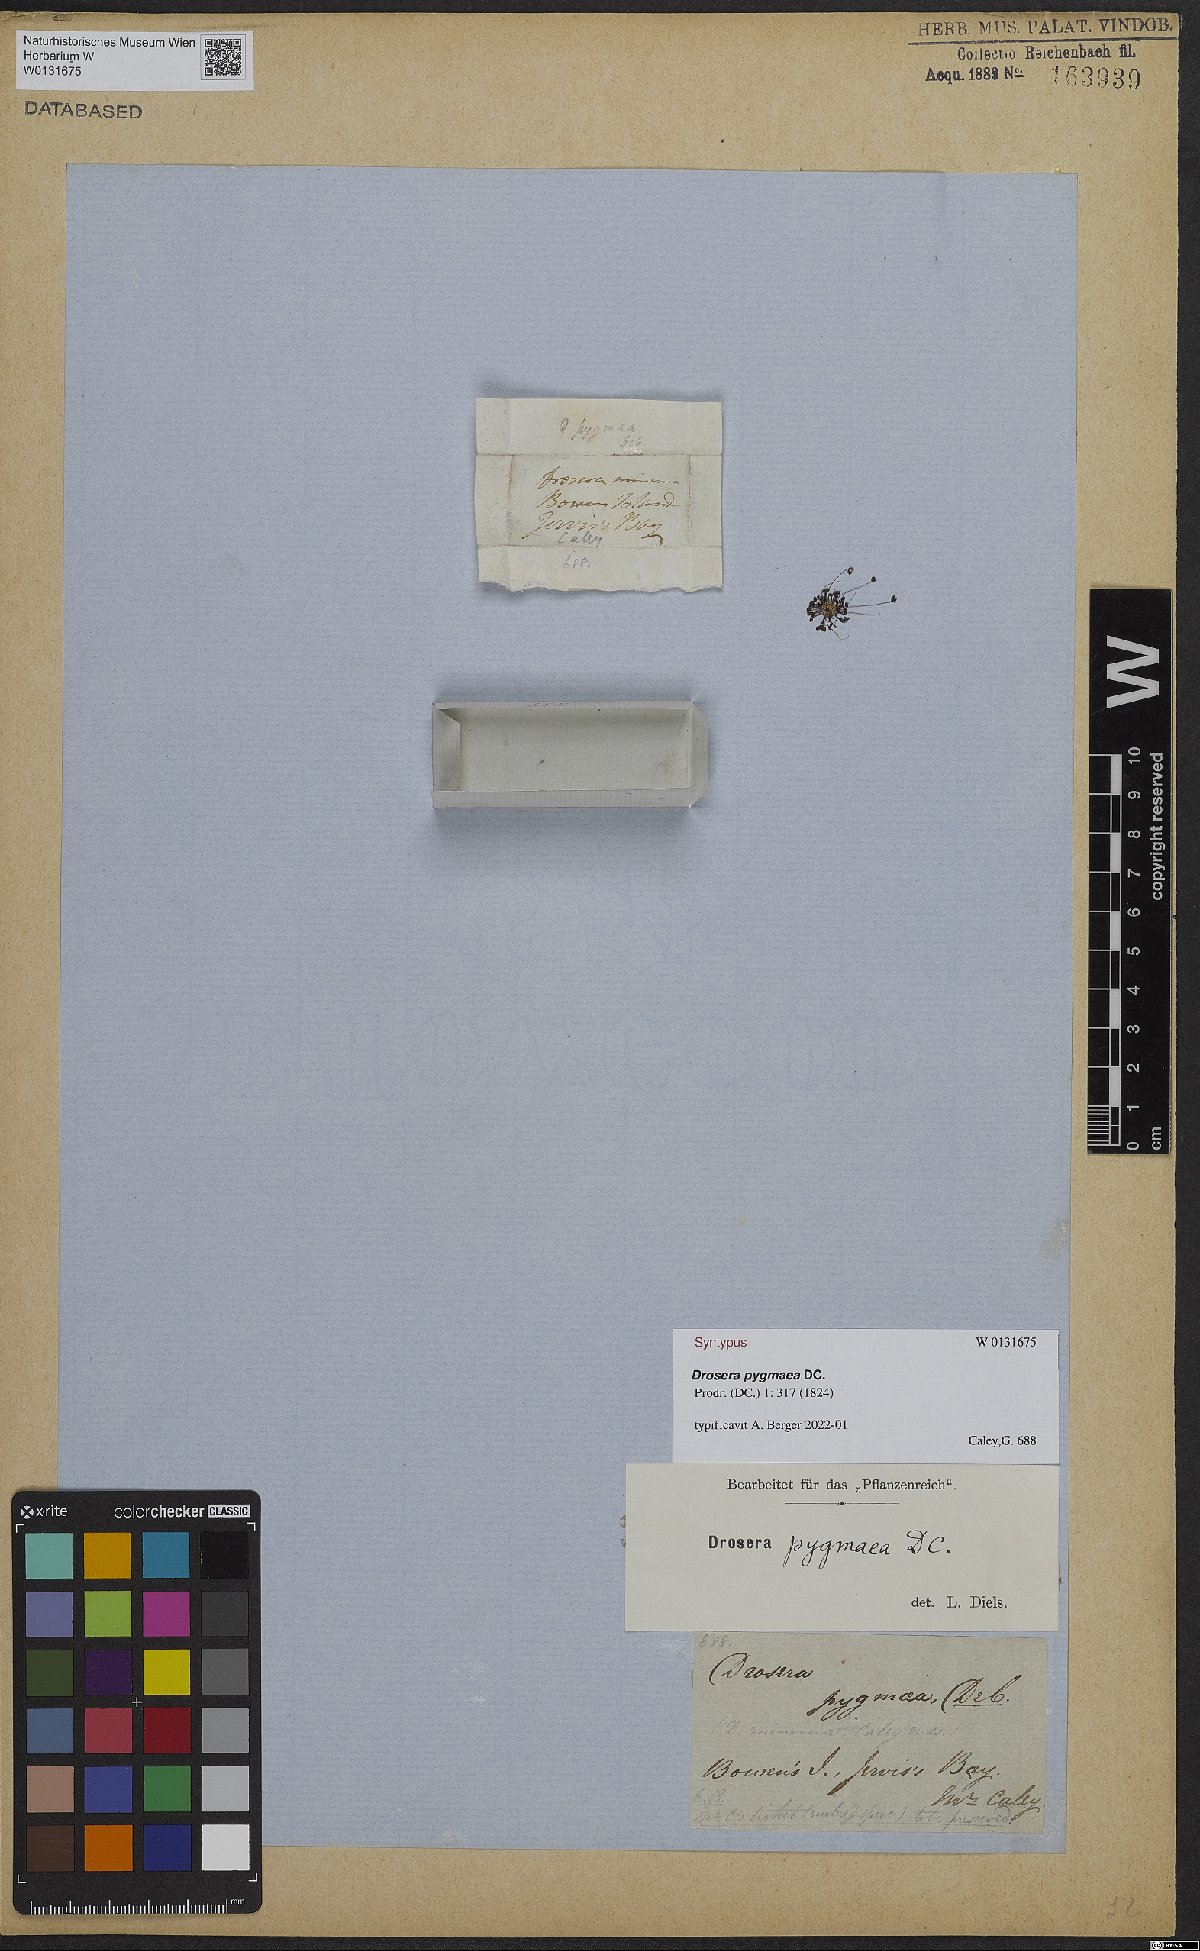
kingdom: Plantae
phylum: Tracheophyta
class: Magnoliopsida
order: Caryophyllales
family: Droseraceae
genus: Drosera
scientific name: Drosera pygmaea
